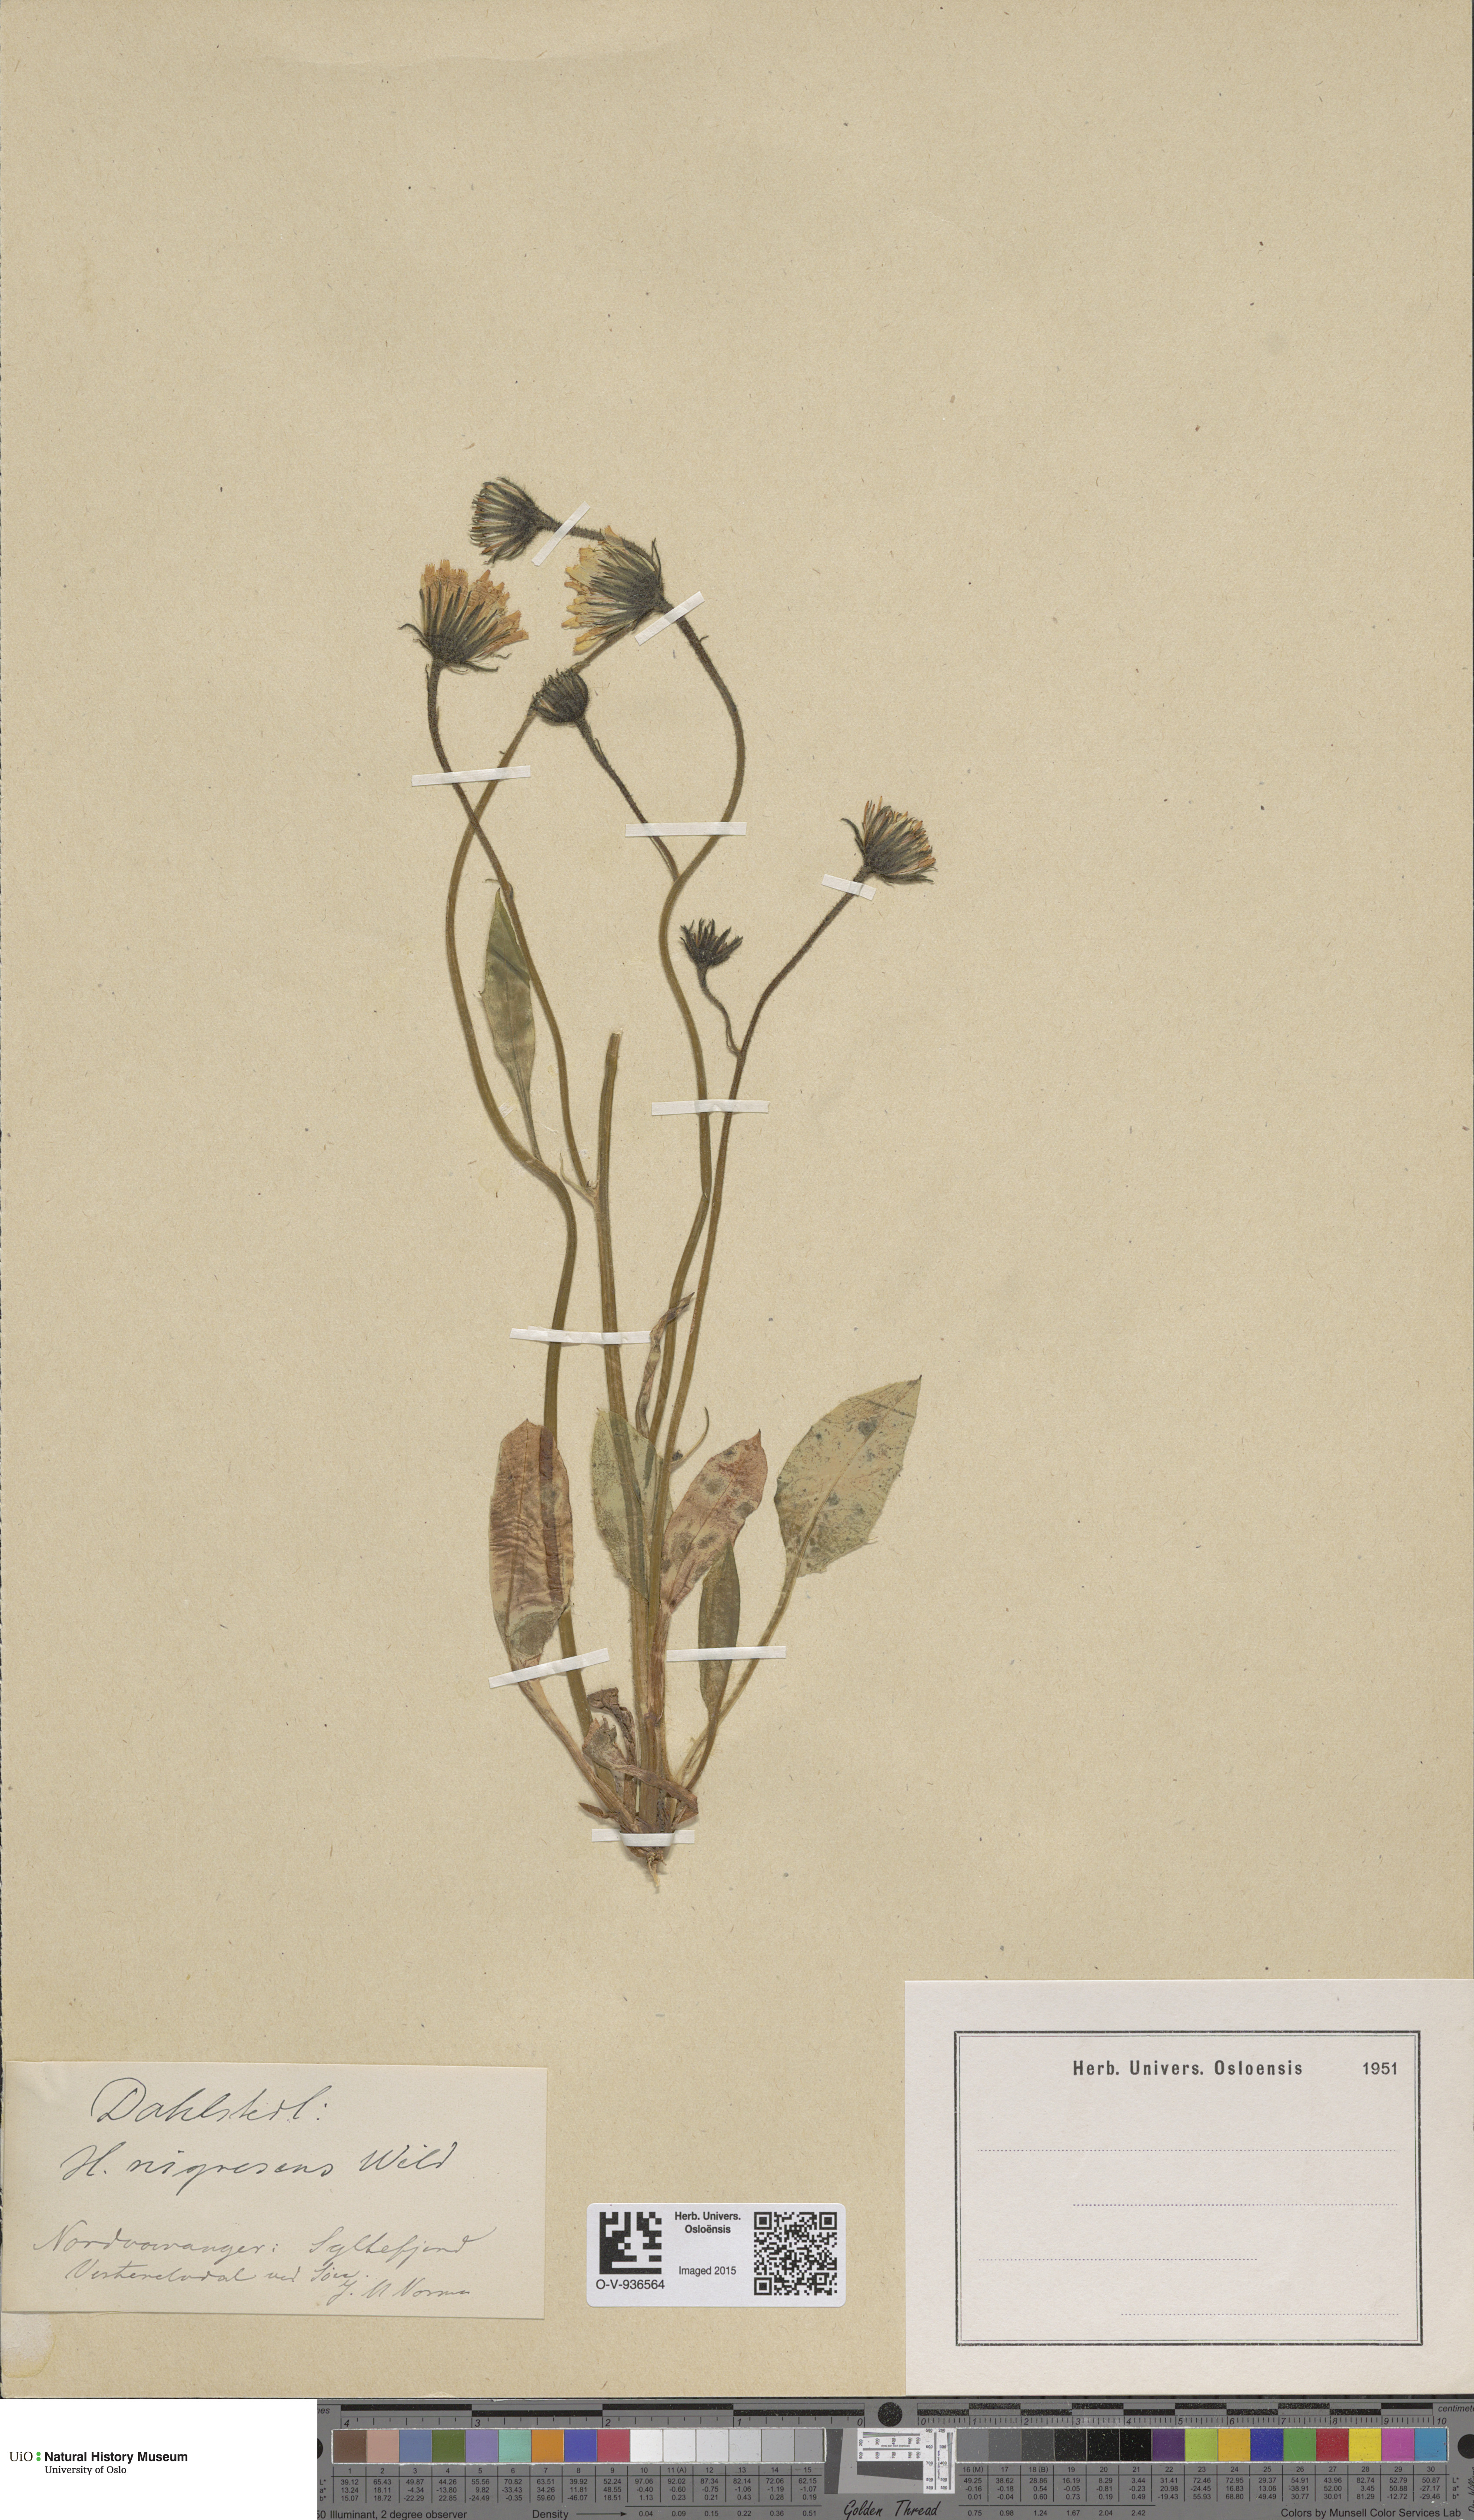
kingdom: Plantae
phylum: Tracheophyta
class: Magnoliopsida
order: Asterales
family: Asteraceae
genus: Hieracium
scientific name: Hieracium nigrescens
